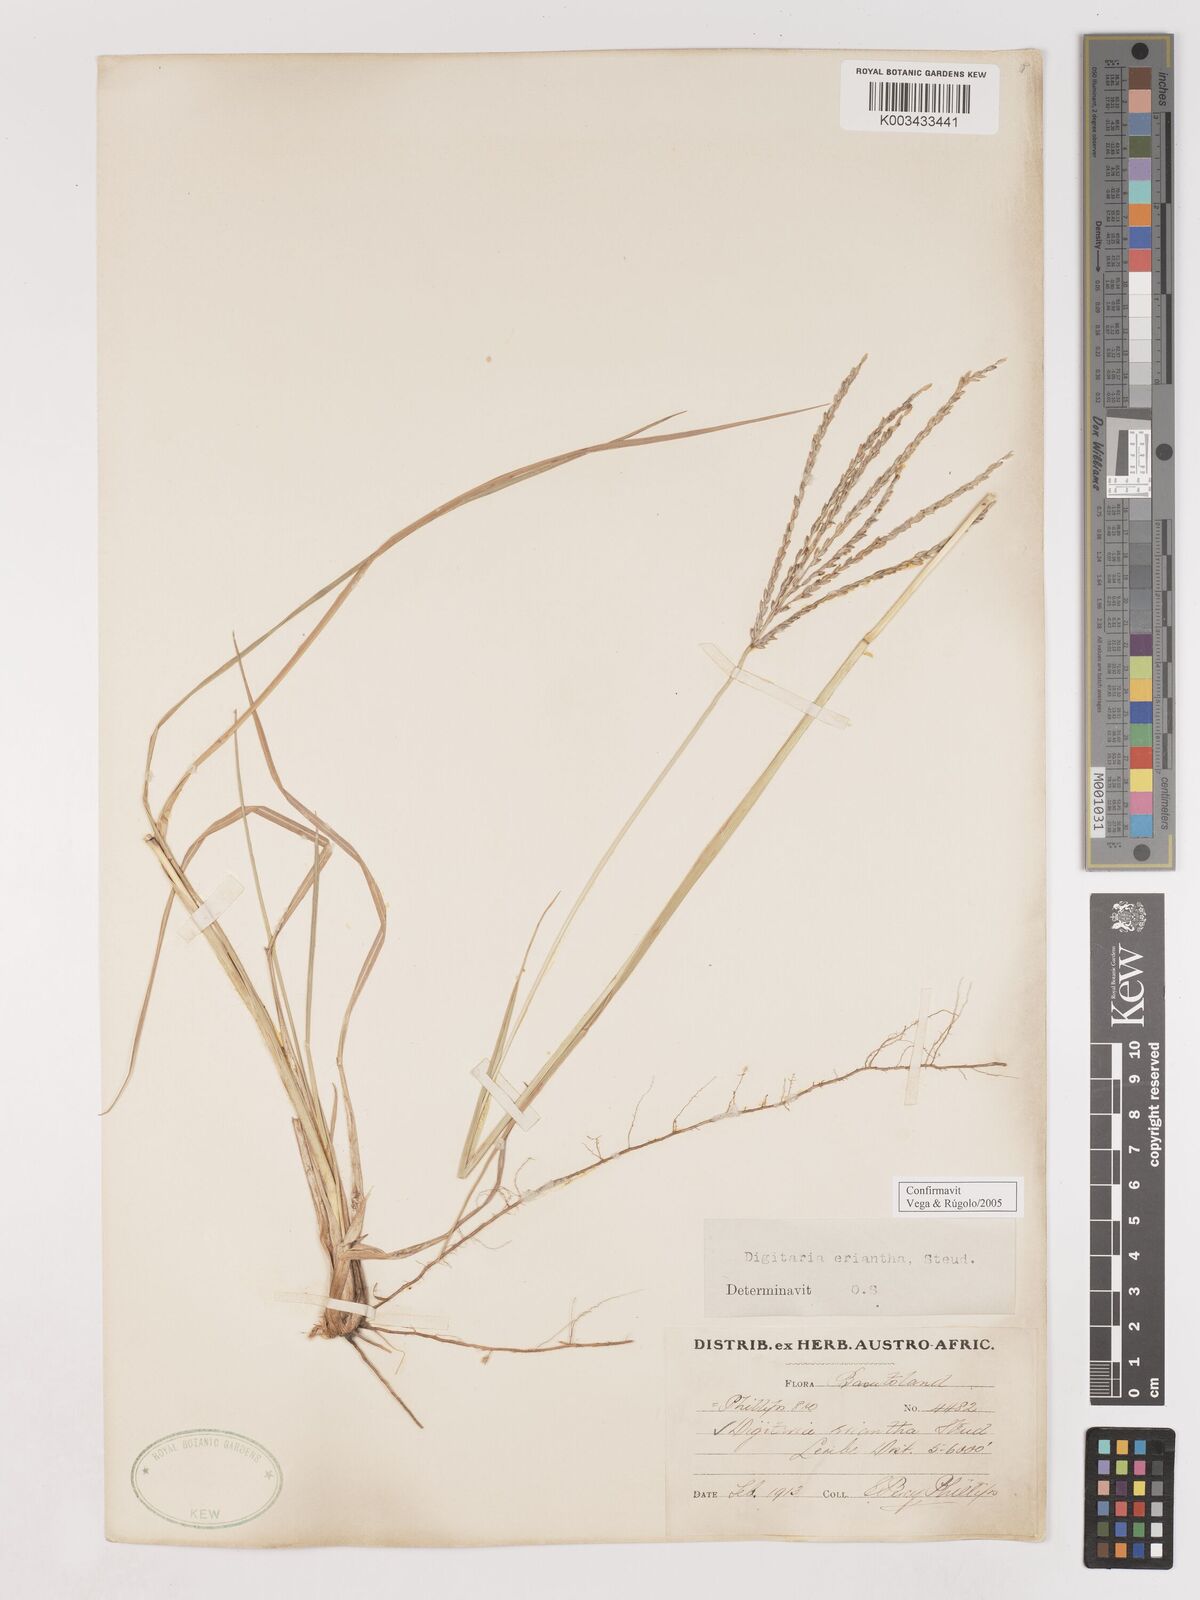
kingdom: Plantae
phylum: Tracheophyta
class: Liliopsida
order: Poales
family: Poaceae
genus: Digitaria
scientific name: Digitaria eriantha
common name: Digitgrass
